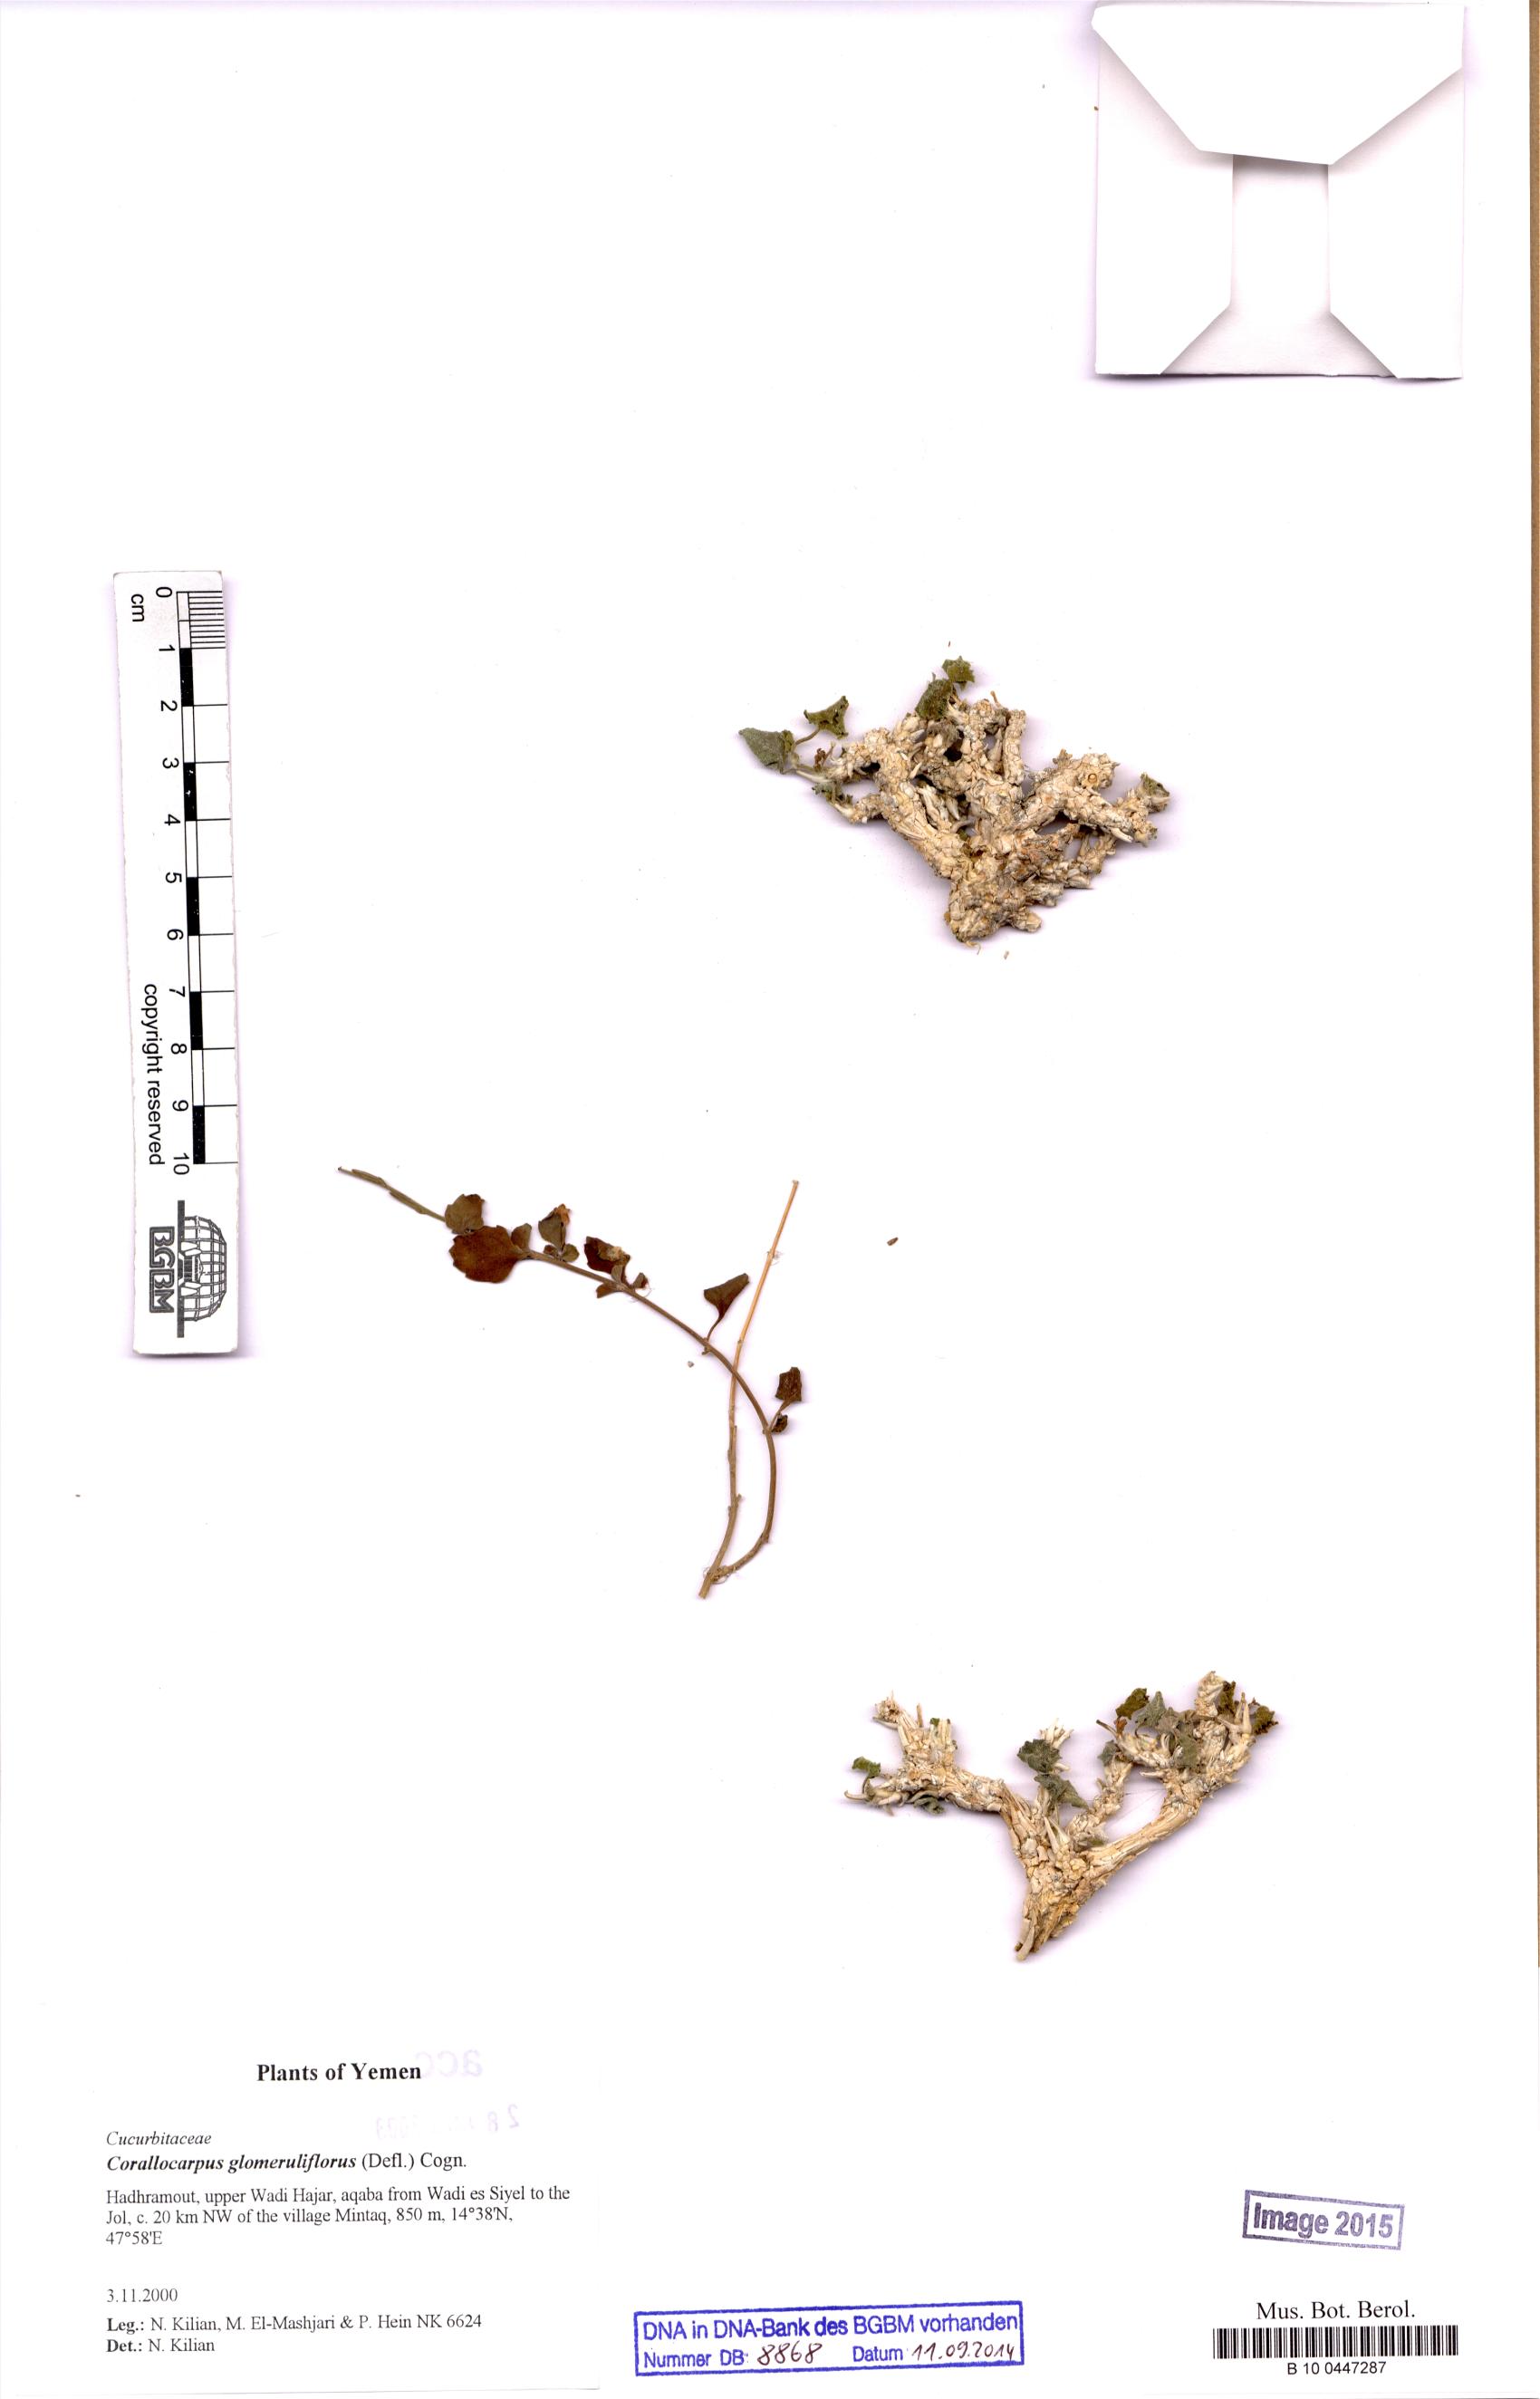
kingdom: Plantae
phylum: Tracheophyta
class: Magnoliopsida
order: Cucurbitales
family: Cucurbitaceae
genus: Corallocarpus
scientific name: Corallocarpus glomeruliflorus
